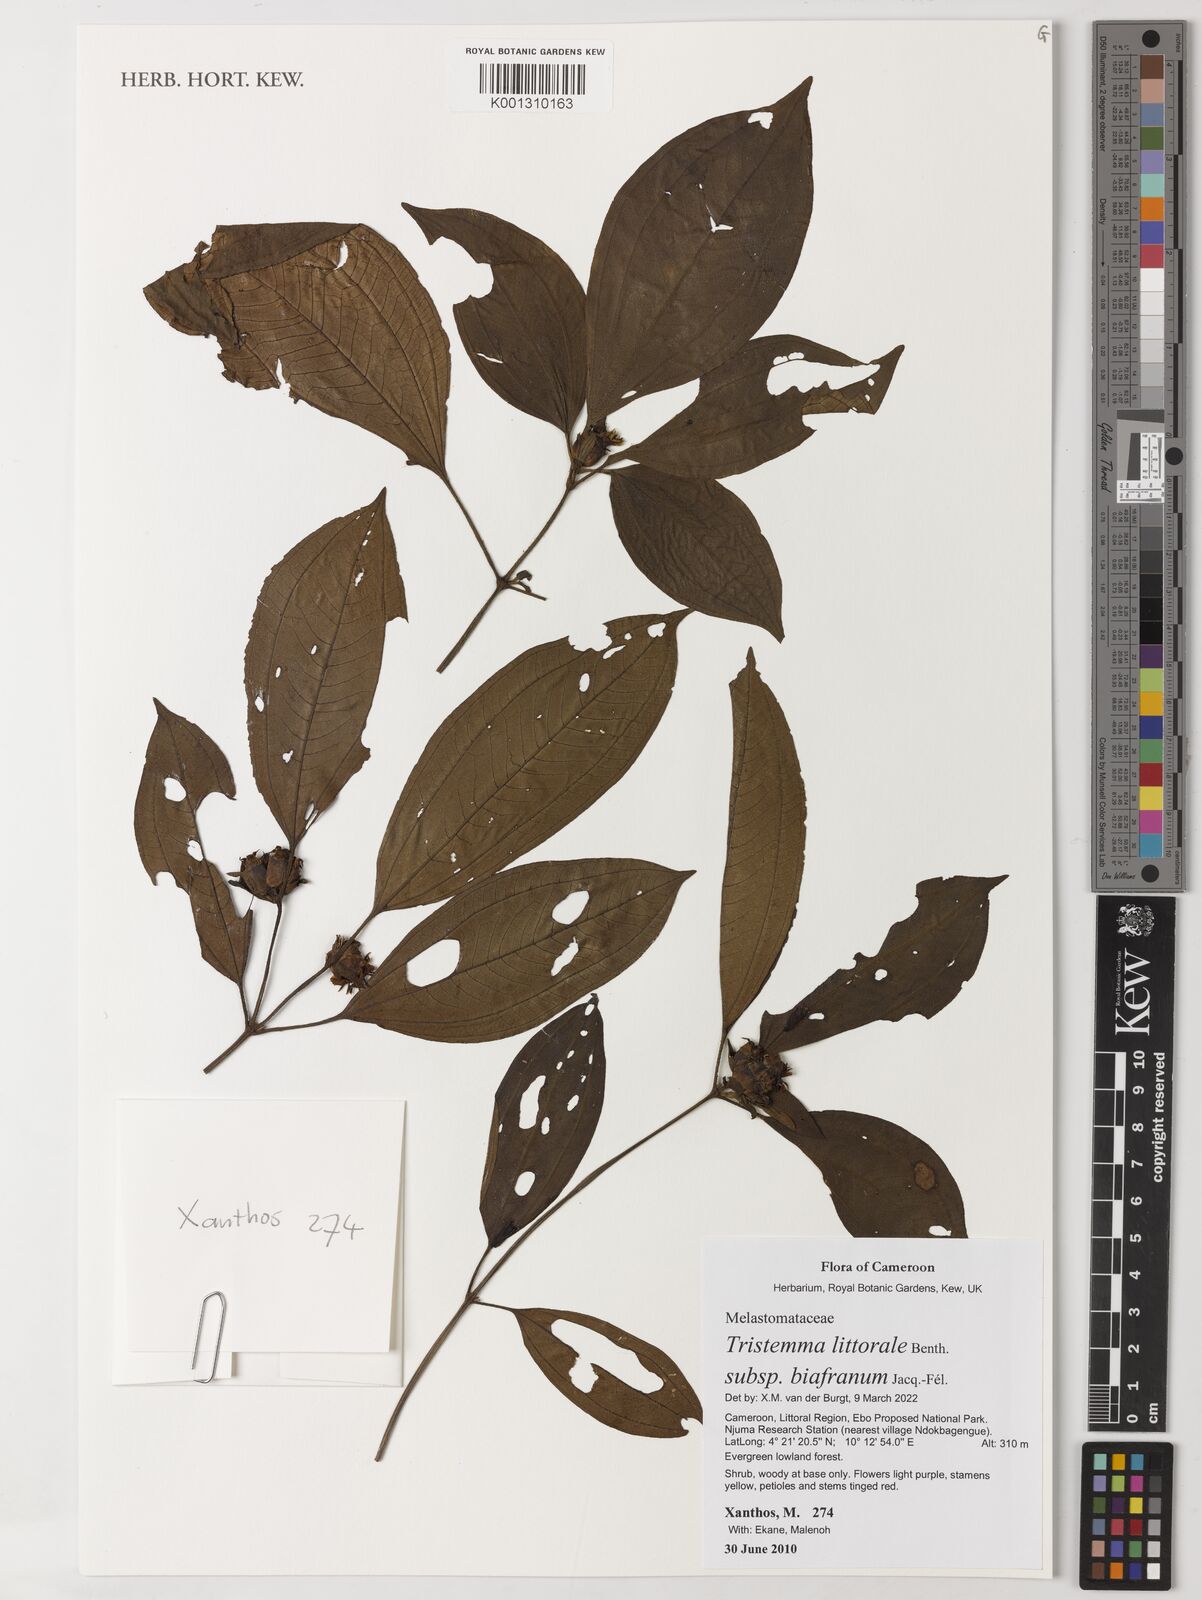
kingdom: Plantae
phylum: Tracheophyta
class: Magnoliopsida
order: Myrtales
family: Melastomataceae
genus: Tristemma
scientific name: Tristemma littorale
